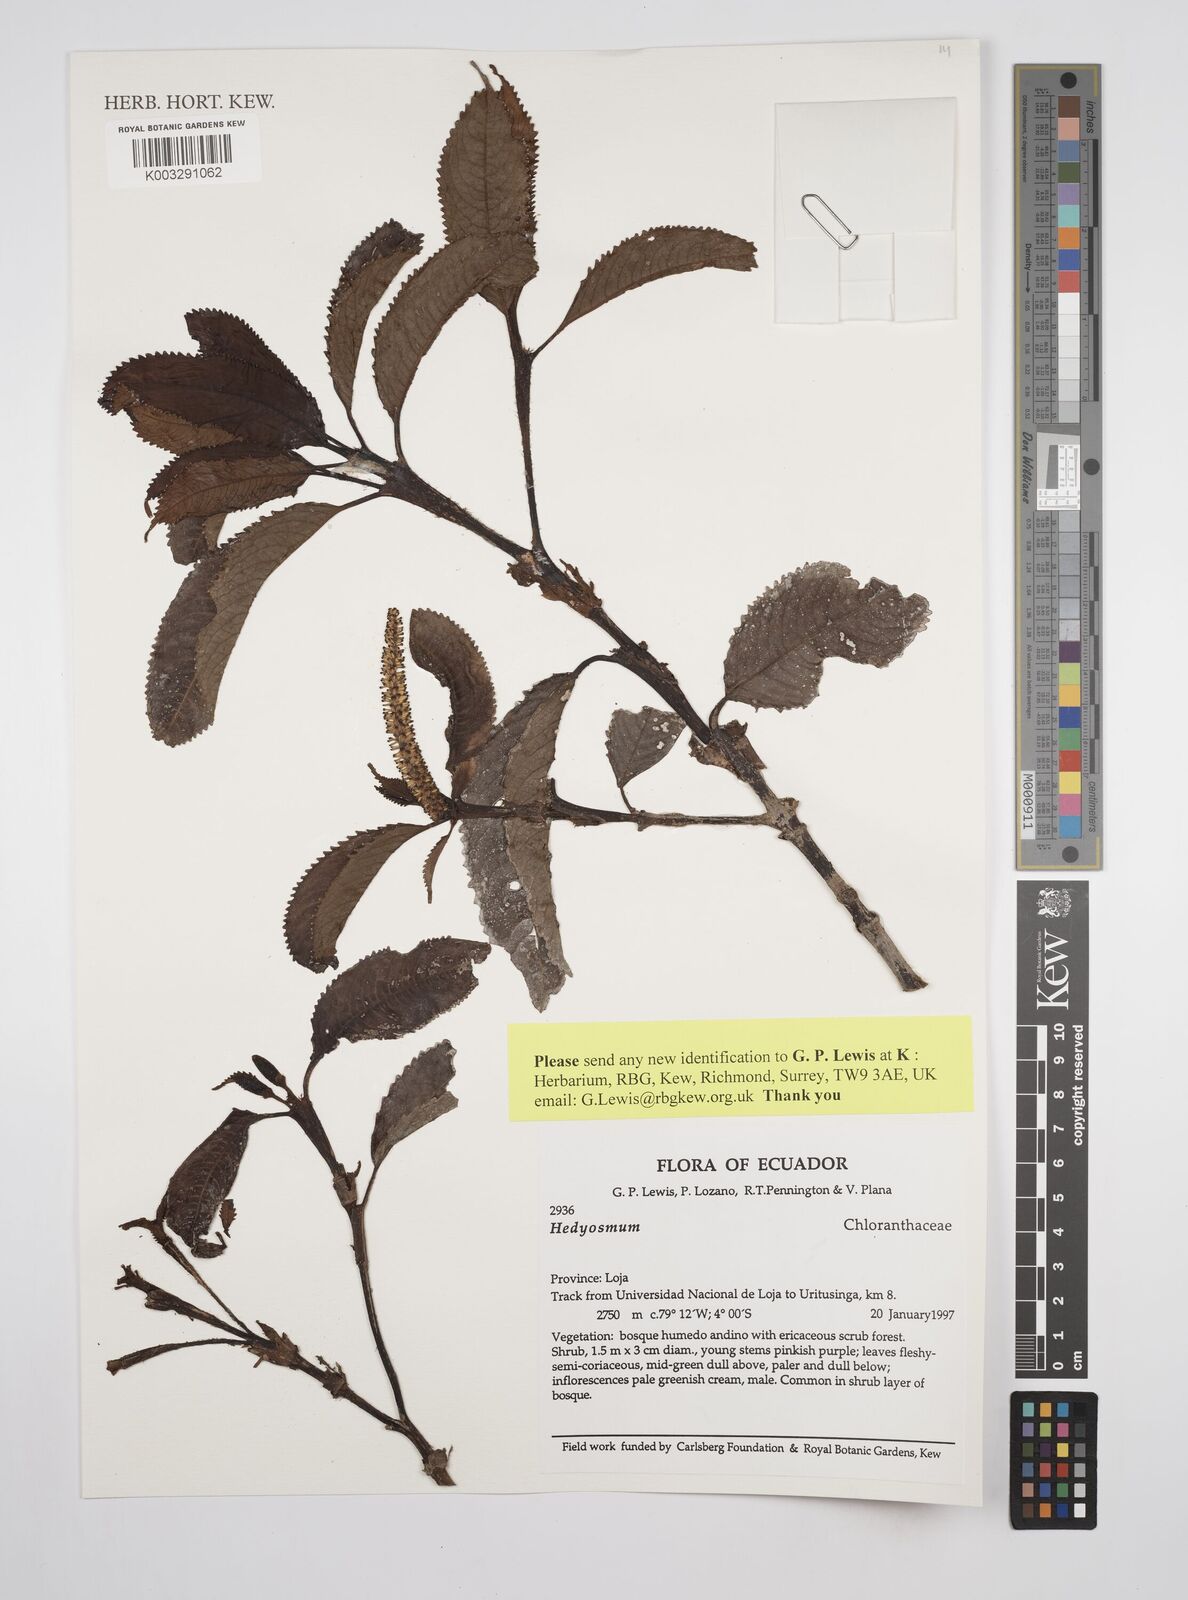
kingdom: Plantae
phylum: Tracheophyta
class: Magnoliopsida
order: Chloranthales
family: Chloranthaceae
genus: Hedyosmum
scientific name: Hedyosmum
